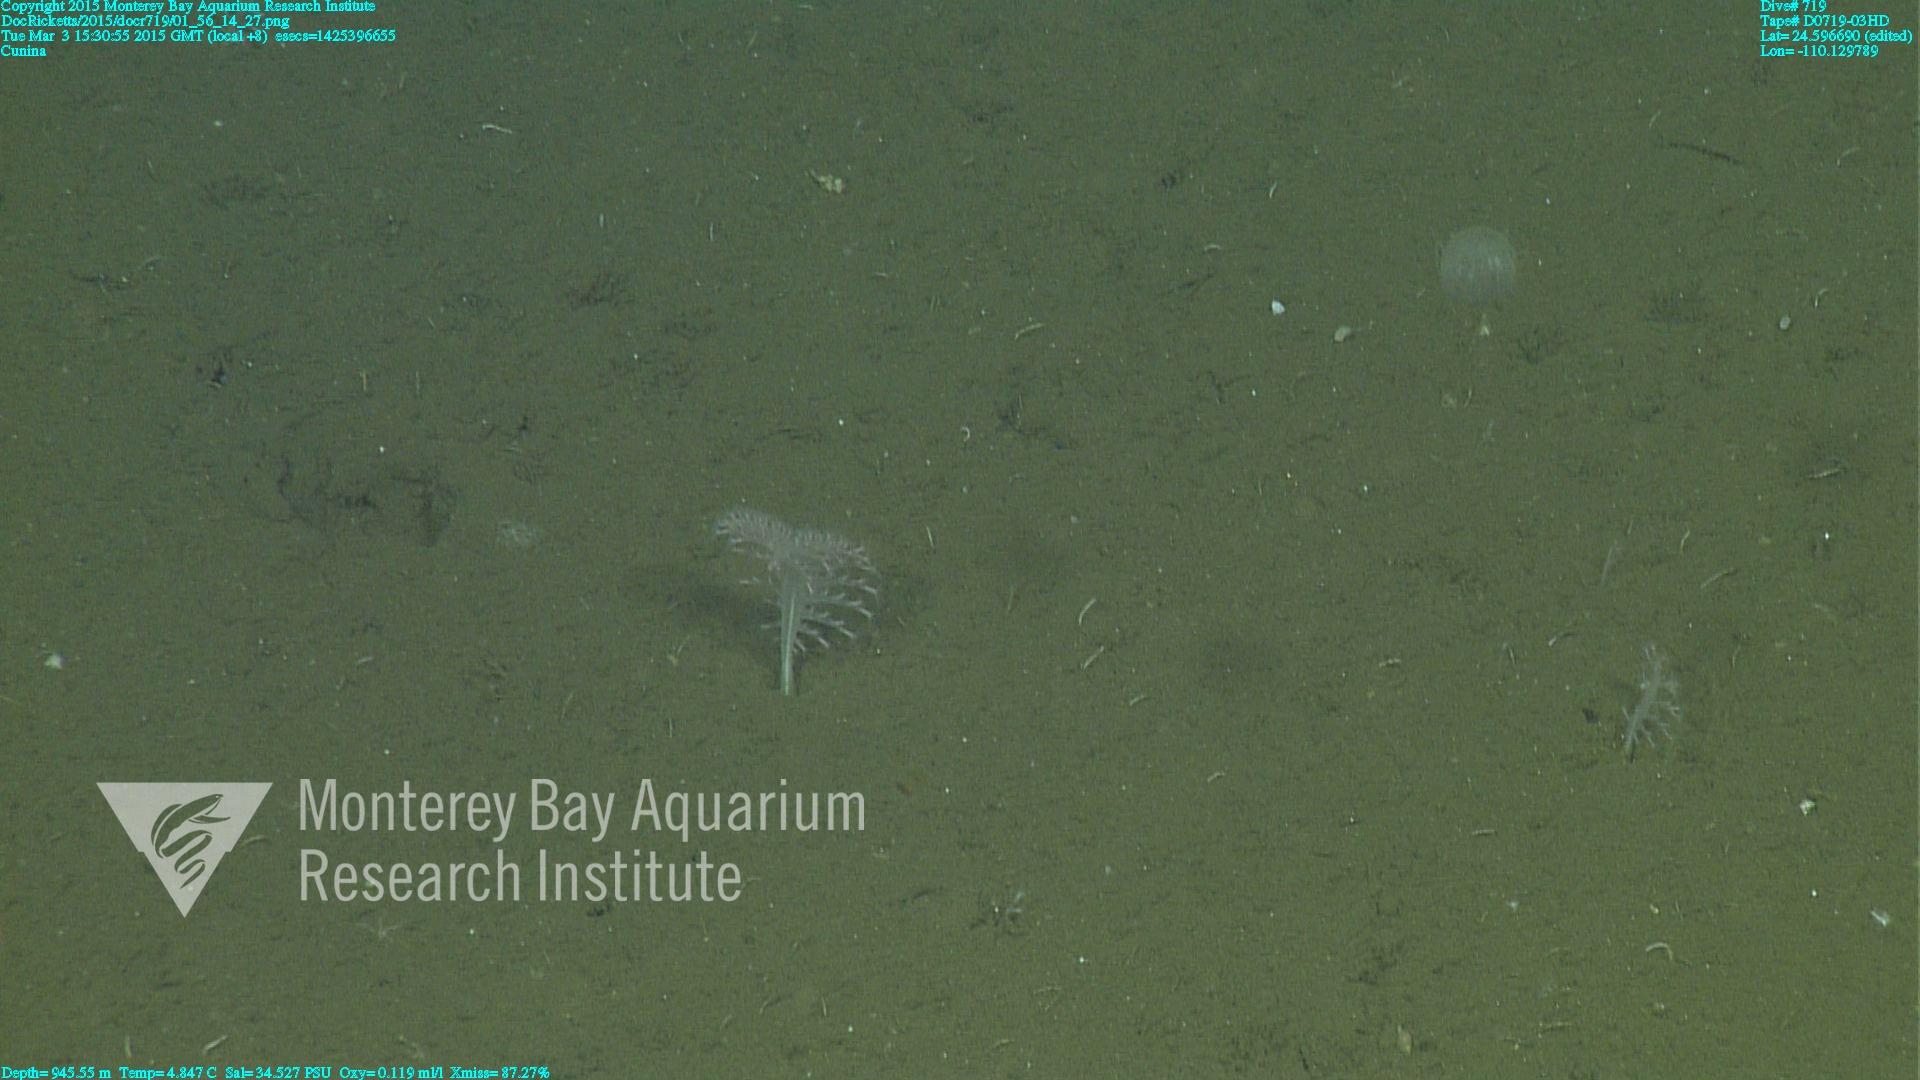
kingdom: Animalia
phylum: Cnidaria
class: Anthozoa
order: Scleralcyonacea
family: Virgulariidae
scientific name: Virgulariidae
